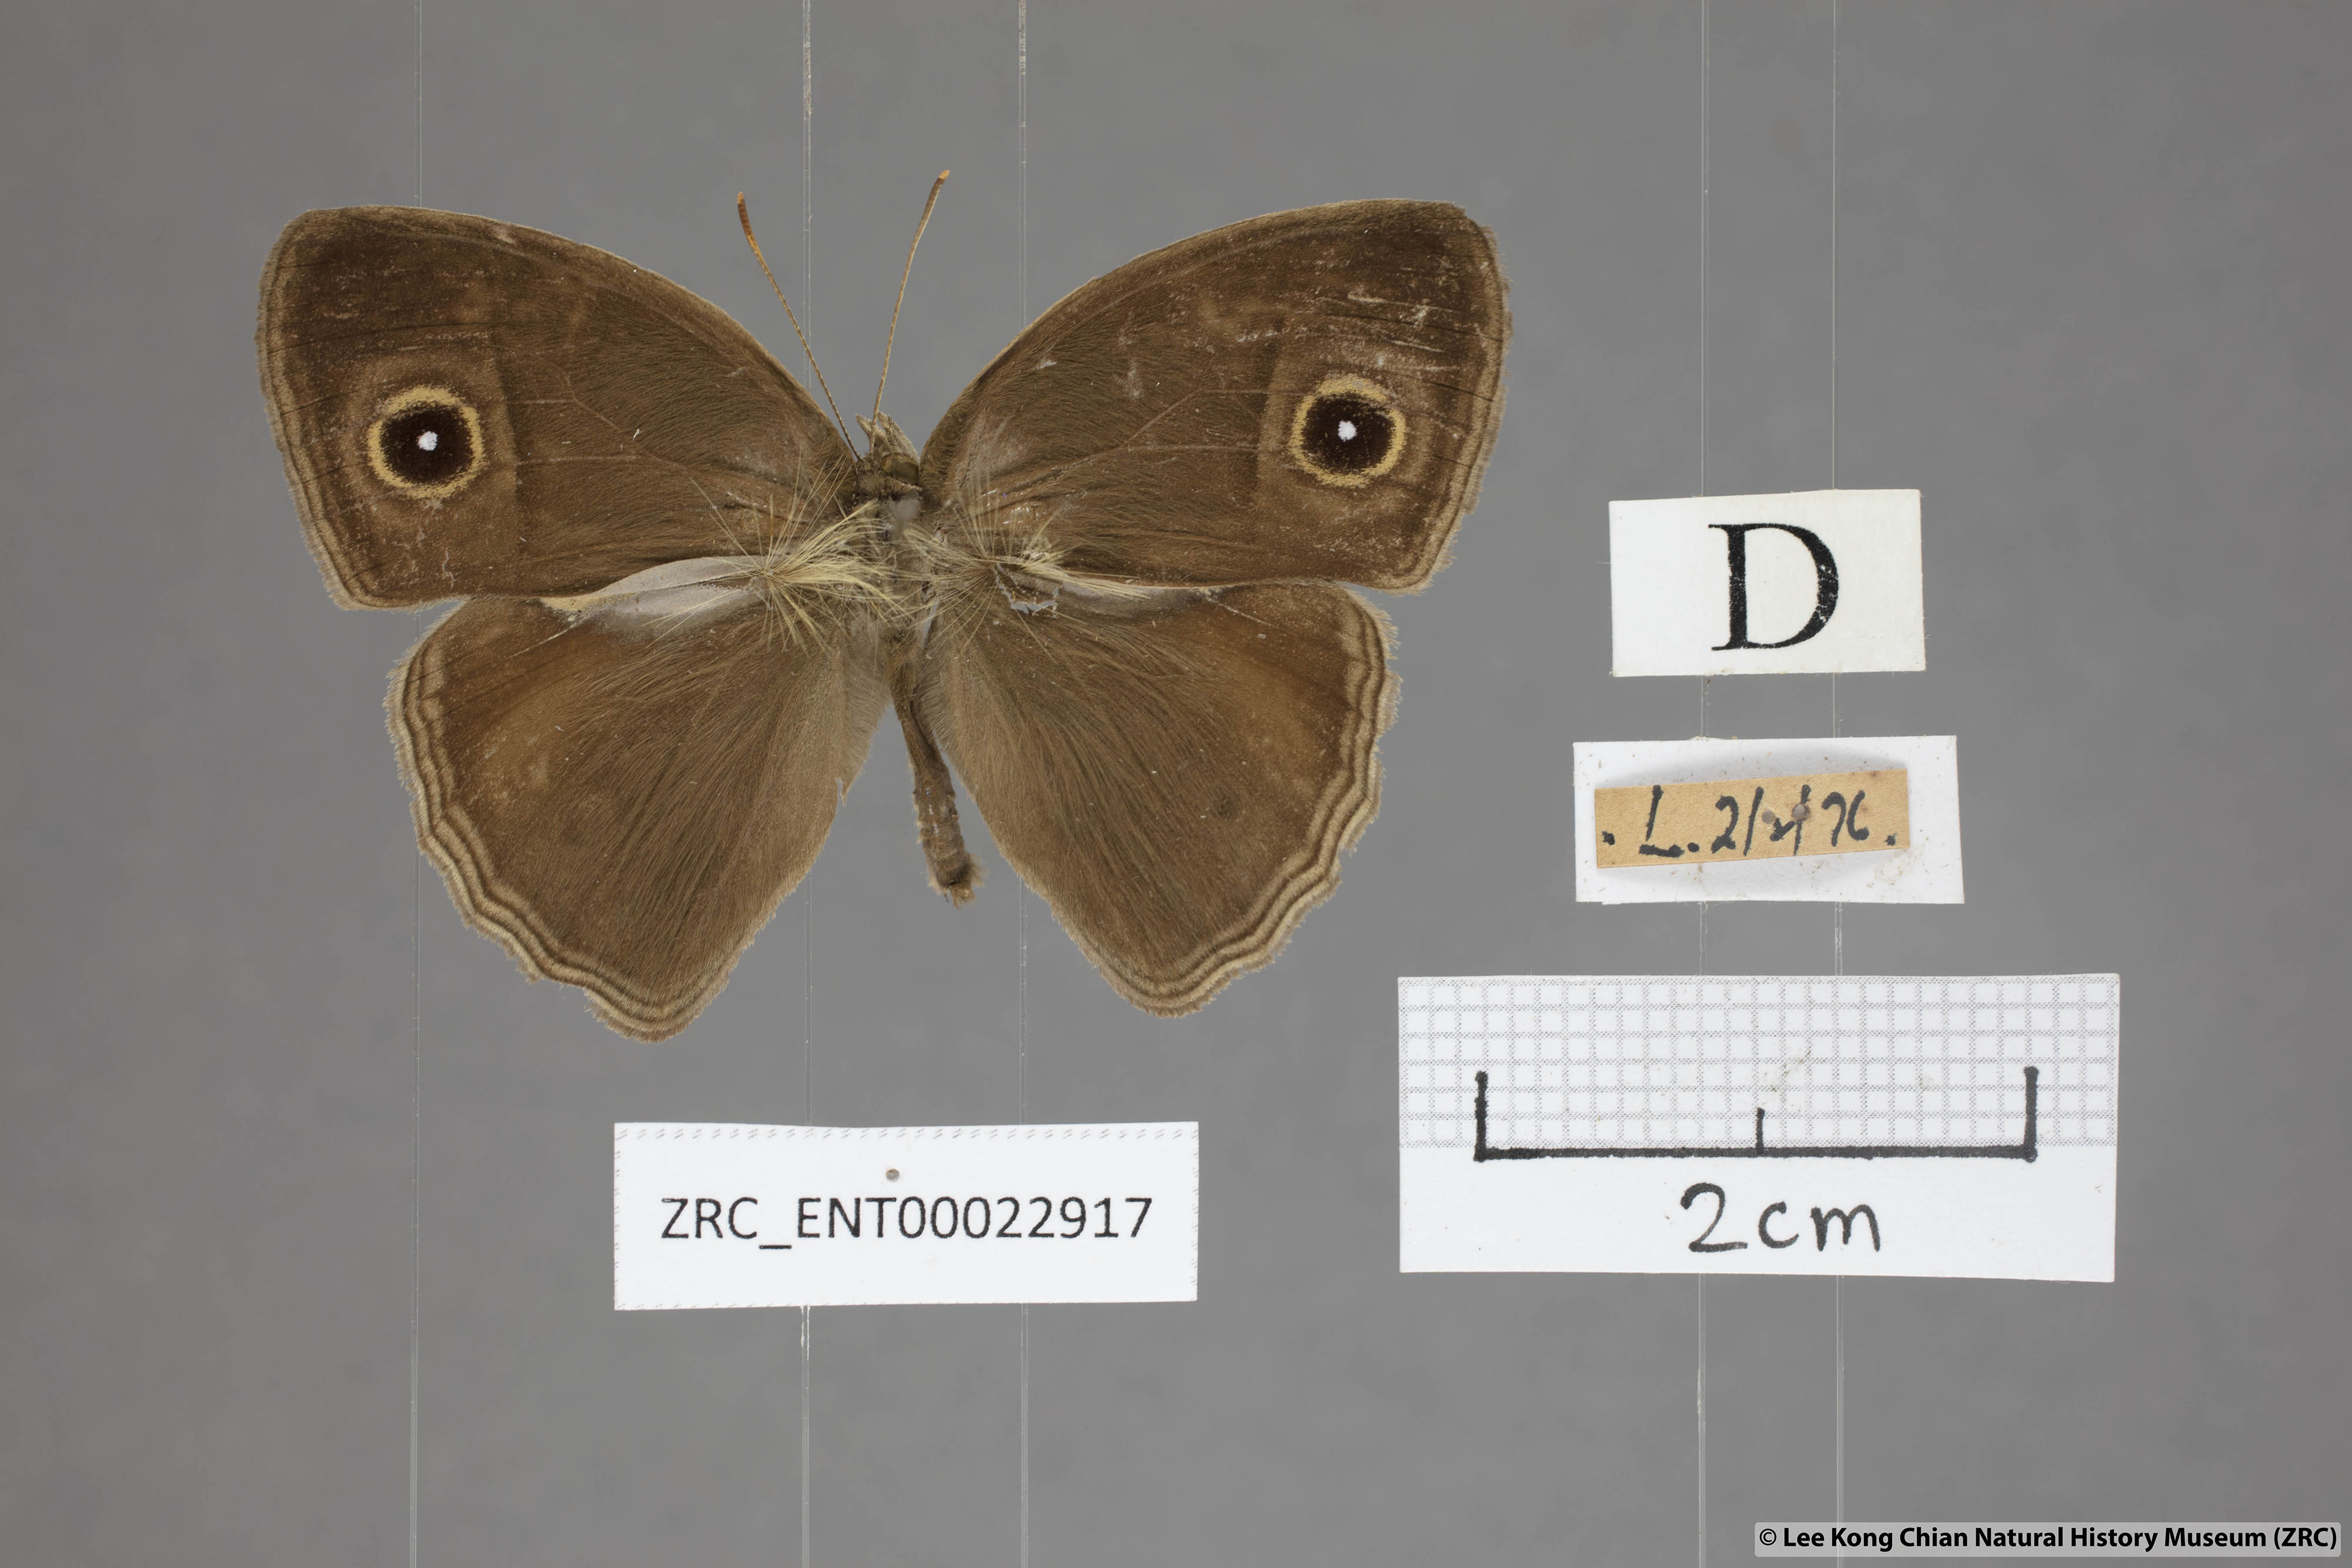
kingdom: Animalia
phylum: Arthropoda
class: Insecta
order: Lepidoptera
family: Nymphalidae
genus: Mycalesis
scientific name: Mycalesis horsfieldii
